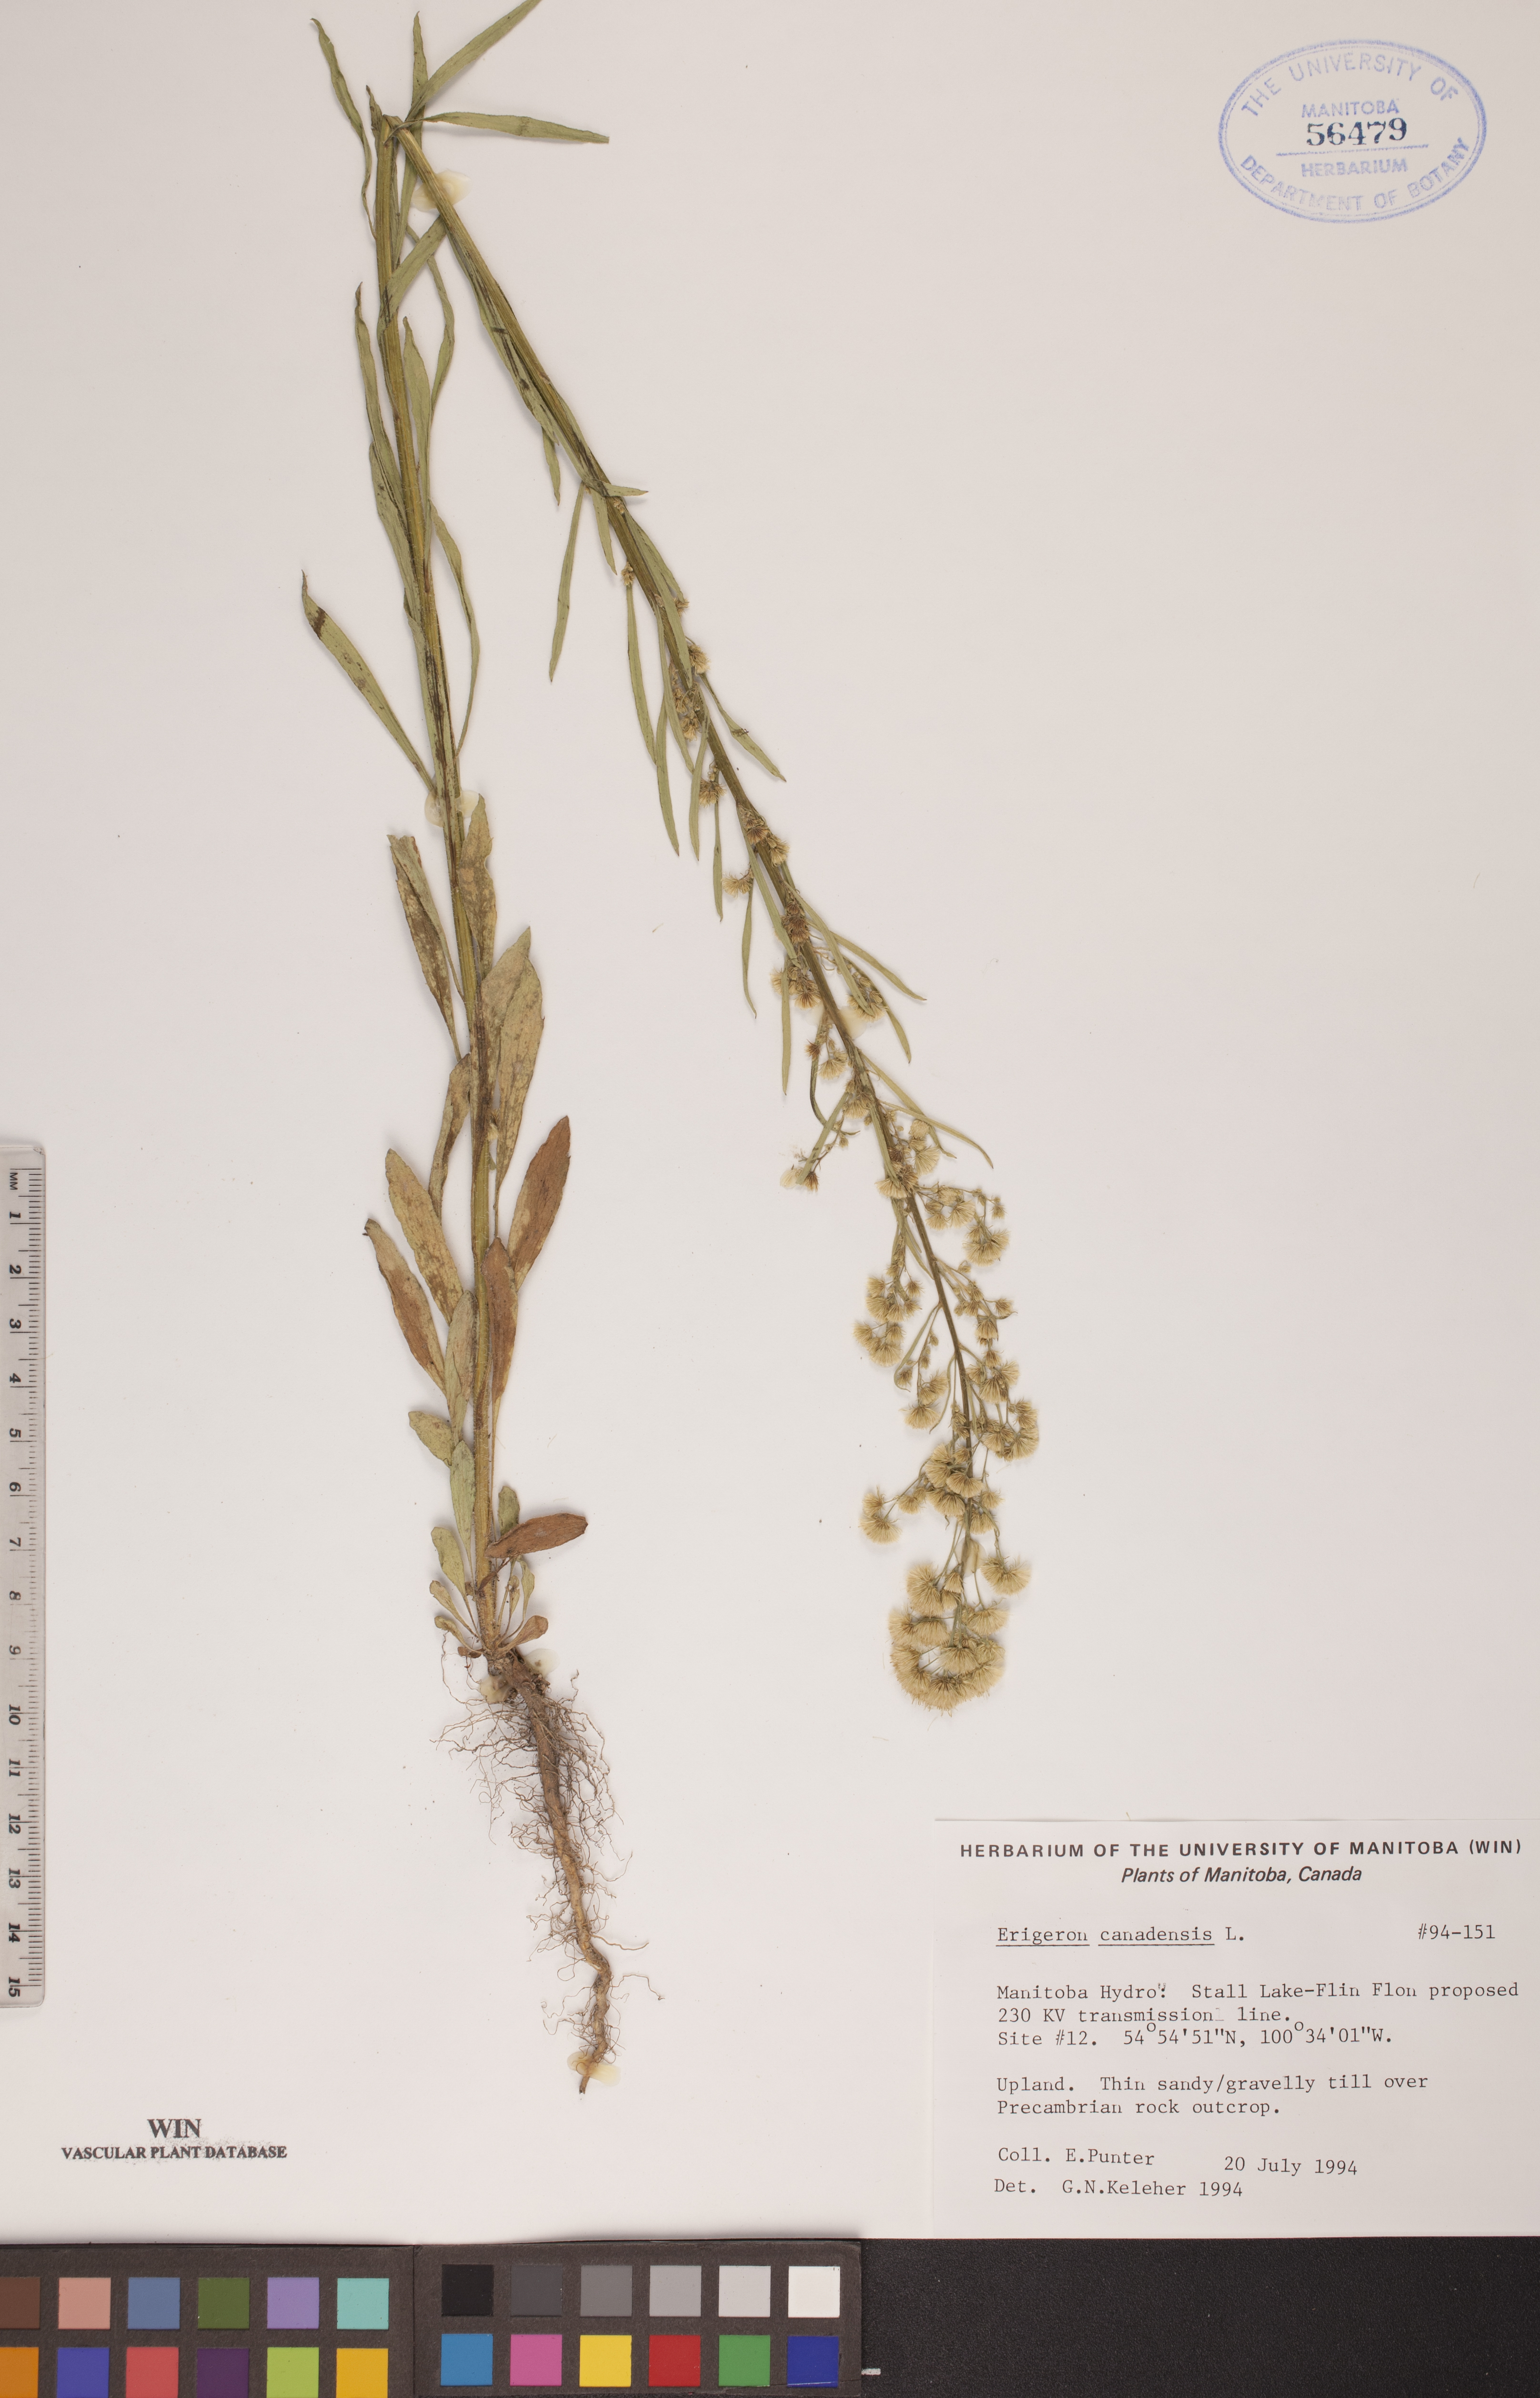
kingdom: Plantae
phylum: Tracheophyta
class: Magnoliopsida
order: Asterales
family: Asteraceae
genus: Erigeron
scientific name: Erigeron canadensis
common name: Canadian fleabane
